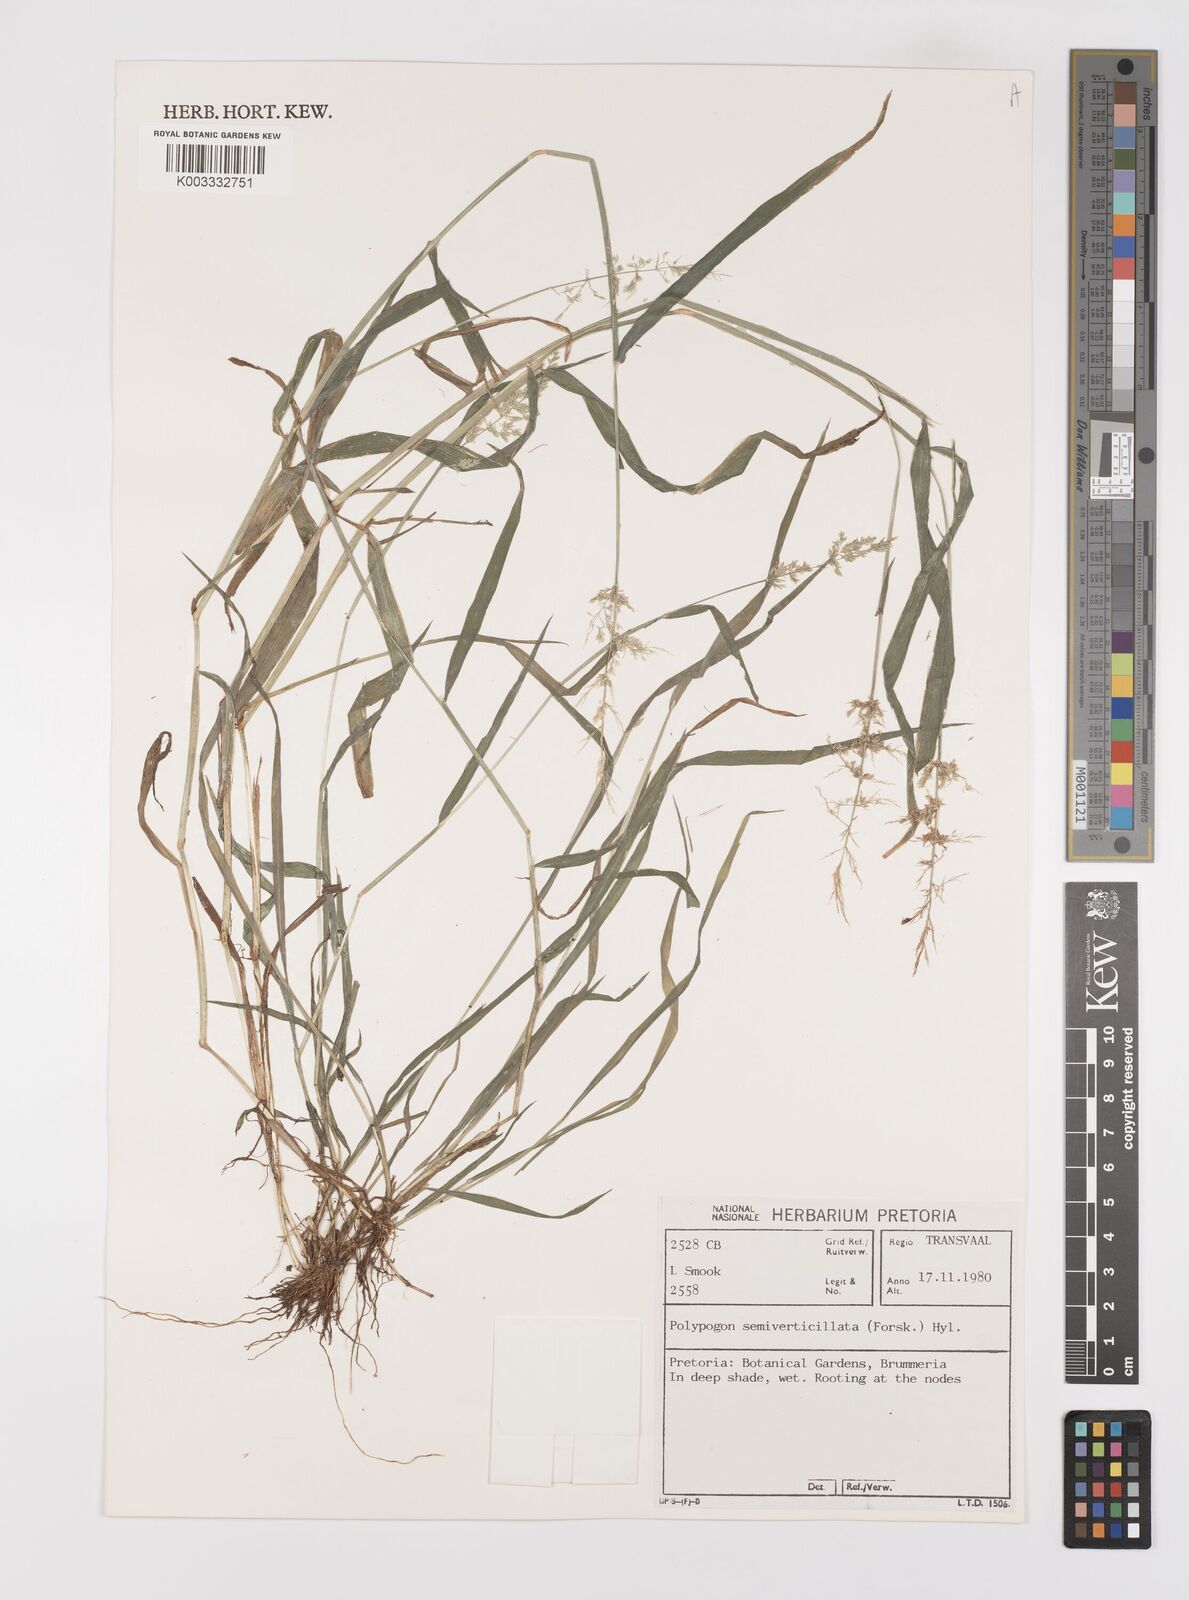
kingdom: Plantae
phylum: Tracheophyta
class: Liliopsida
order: Poales
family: Poaceae
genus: Polypogon
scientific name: Polypogon viridis
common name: Water bent
